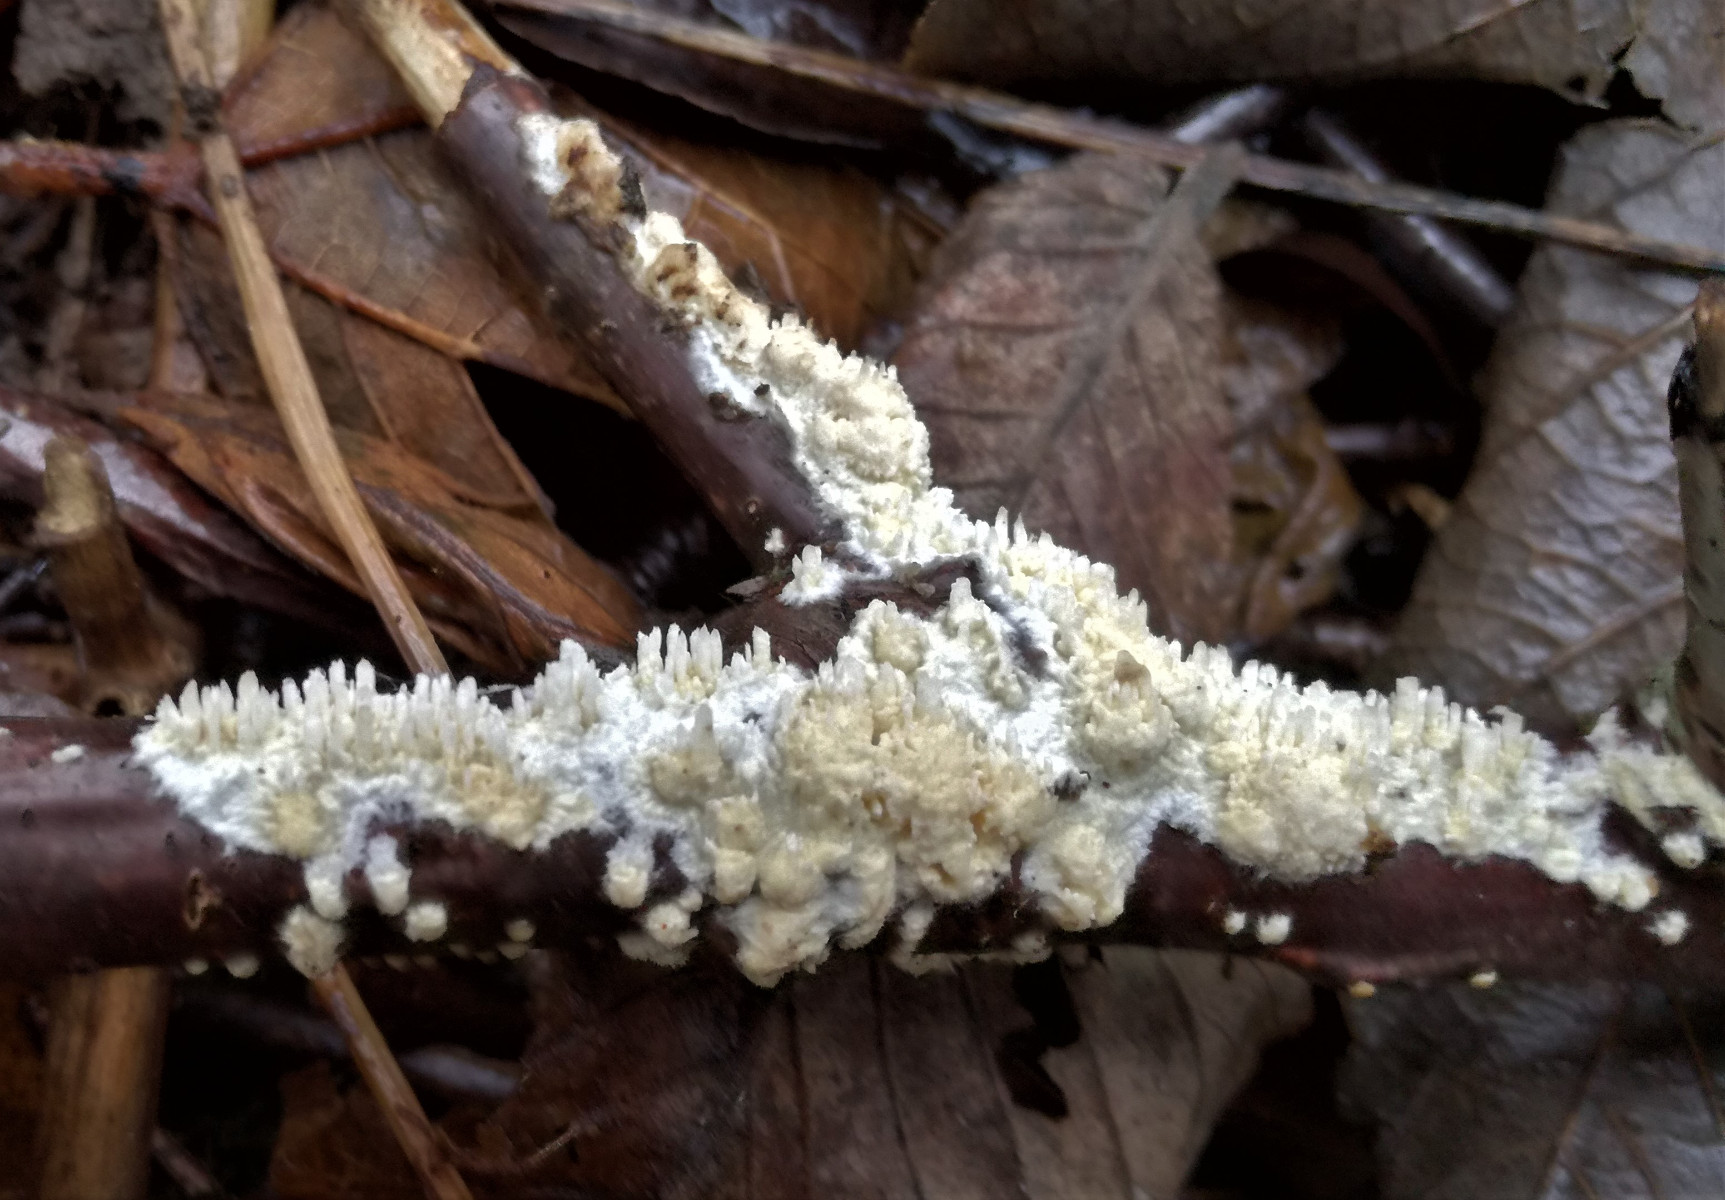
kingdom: Fungi
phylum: Basidiomycota
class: Agaricomycetes
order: Hymenochaetales
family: Schizoporaceae
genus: Xylodon
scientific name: Xylodon radula
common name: grovtandet kalkskind
